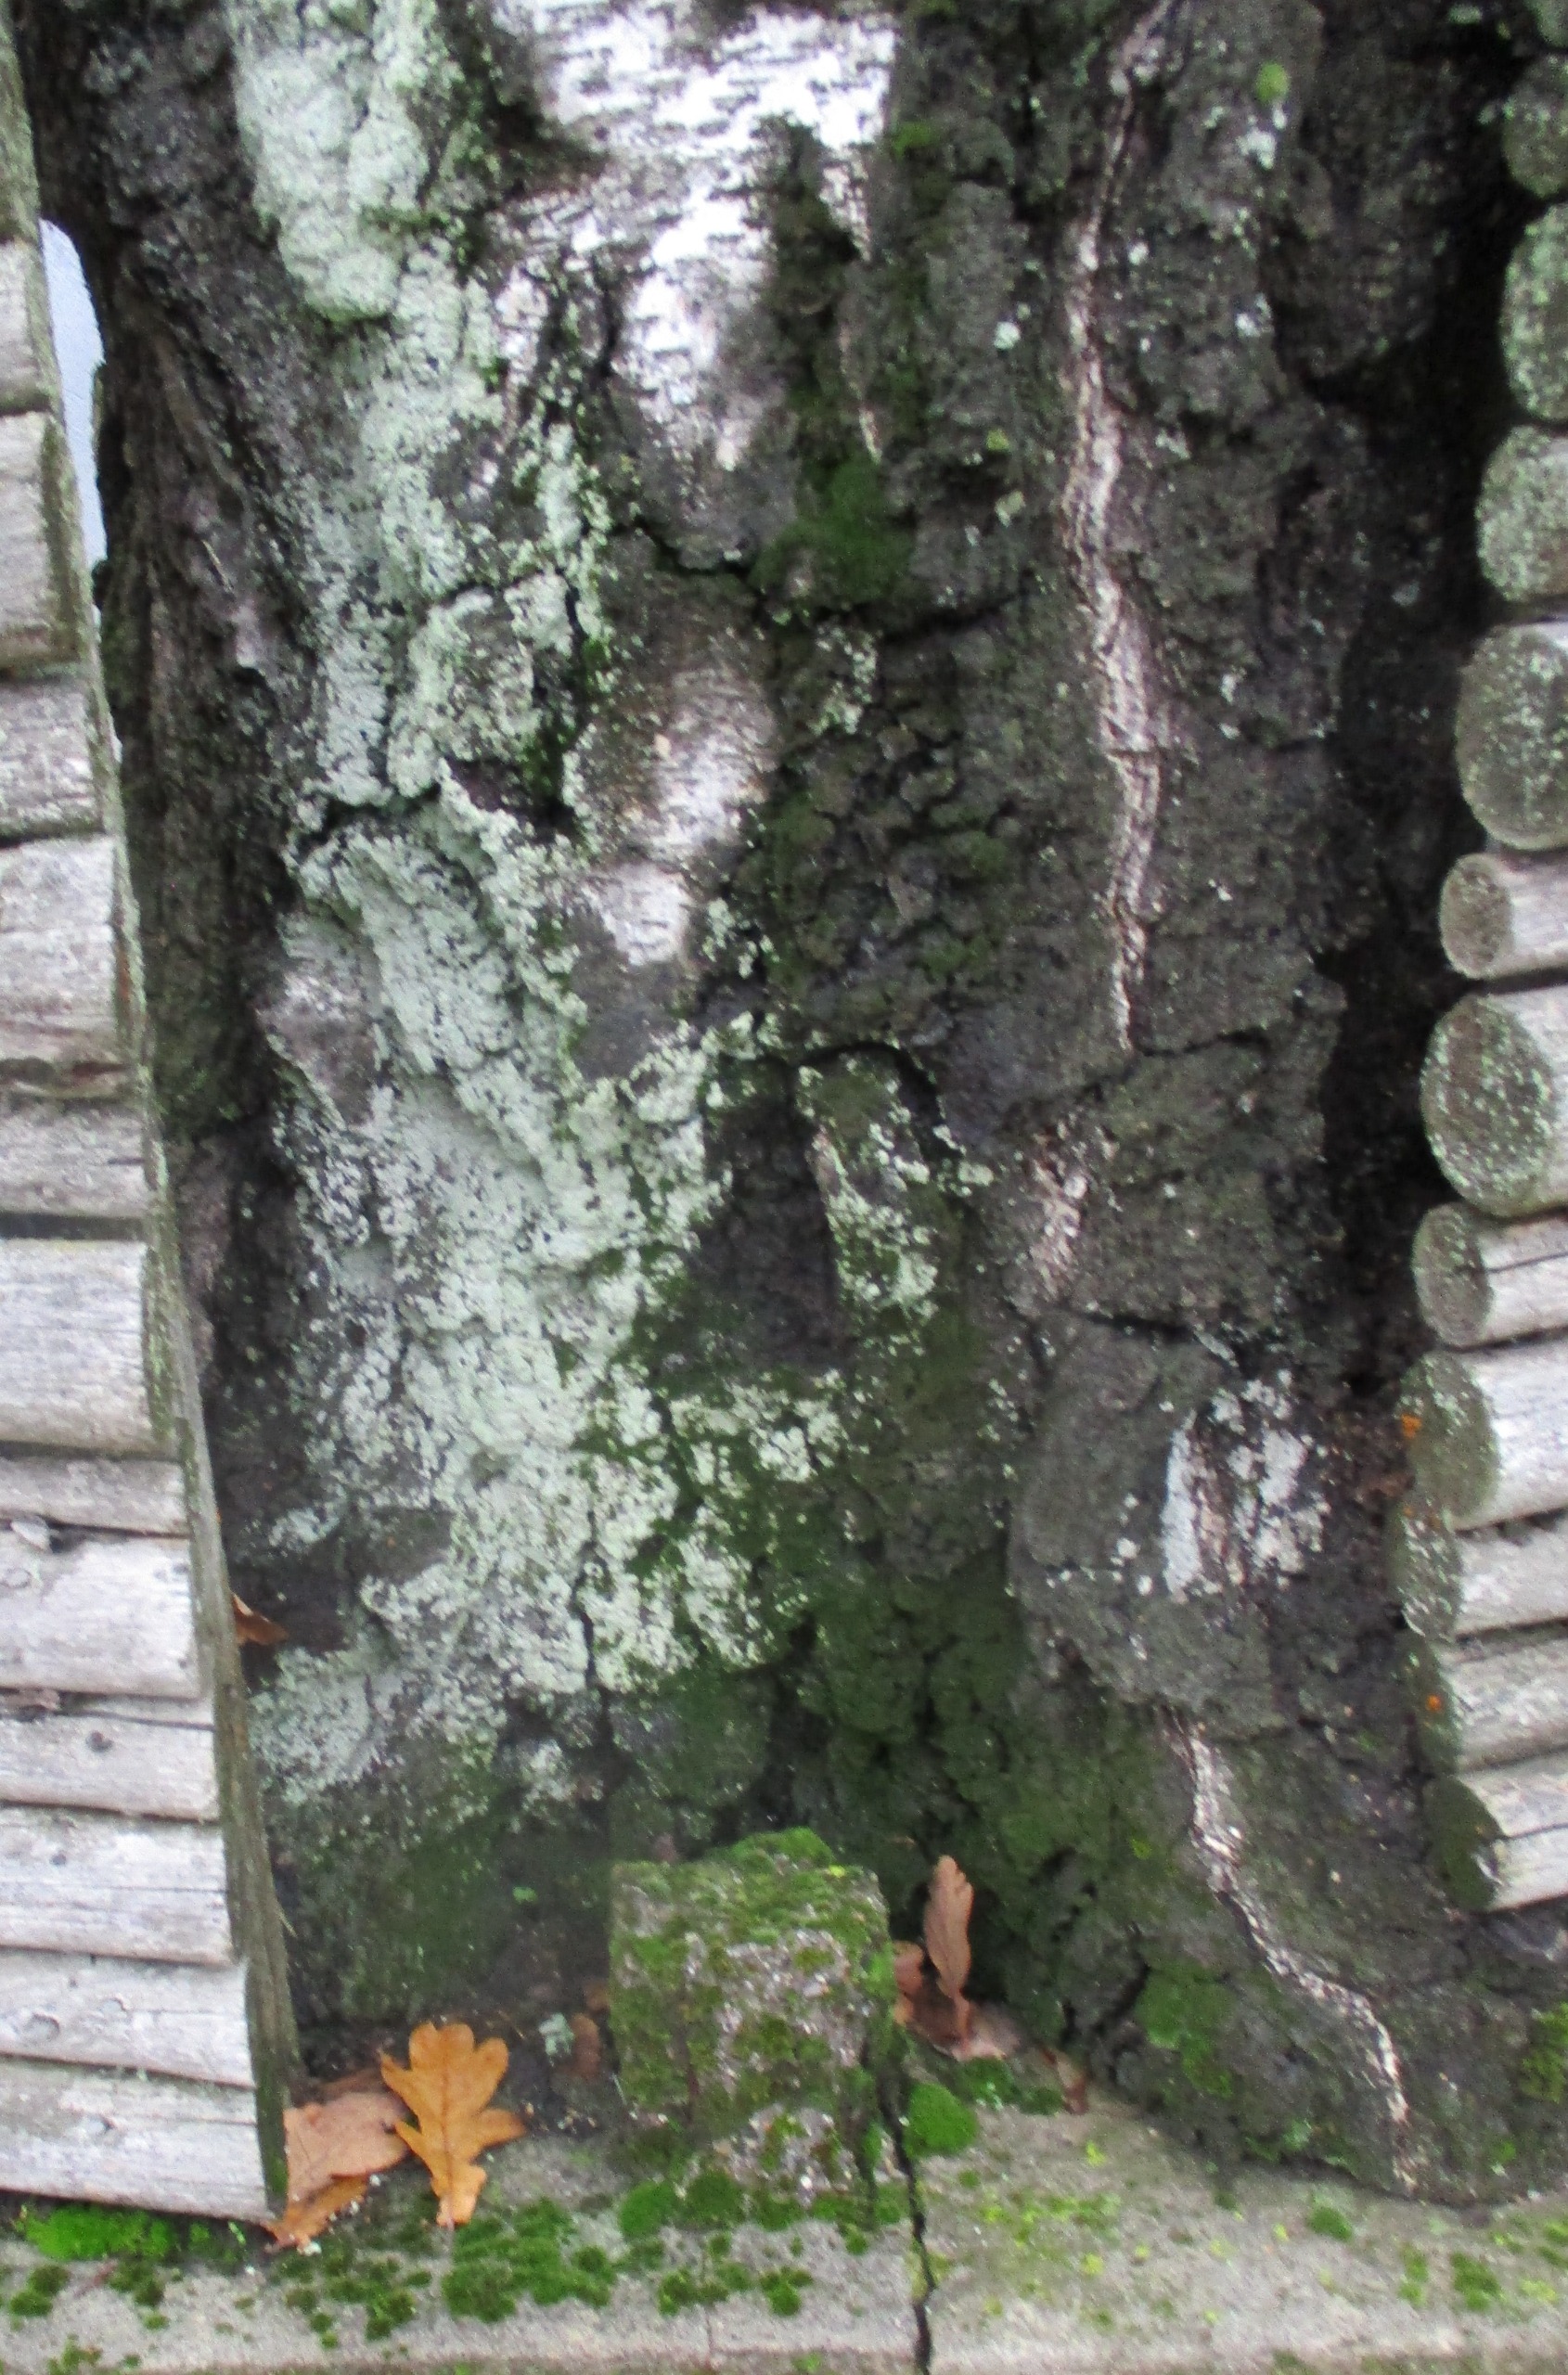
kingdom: Fungi
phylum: Ascomycota
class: Lecanoromycetes
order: Lecanorales
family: Stereocaulaceae
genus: Lepraria
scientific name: Lepraria
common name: Støvlav
